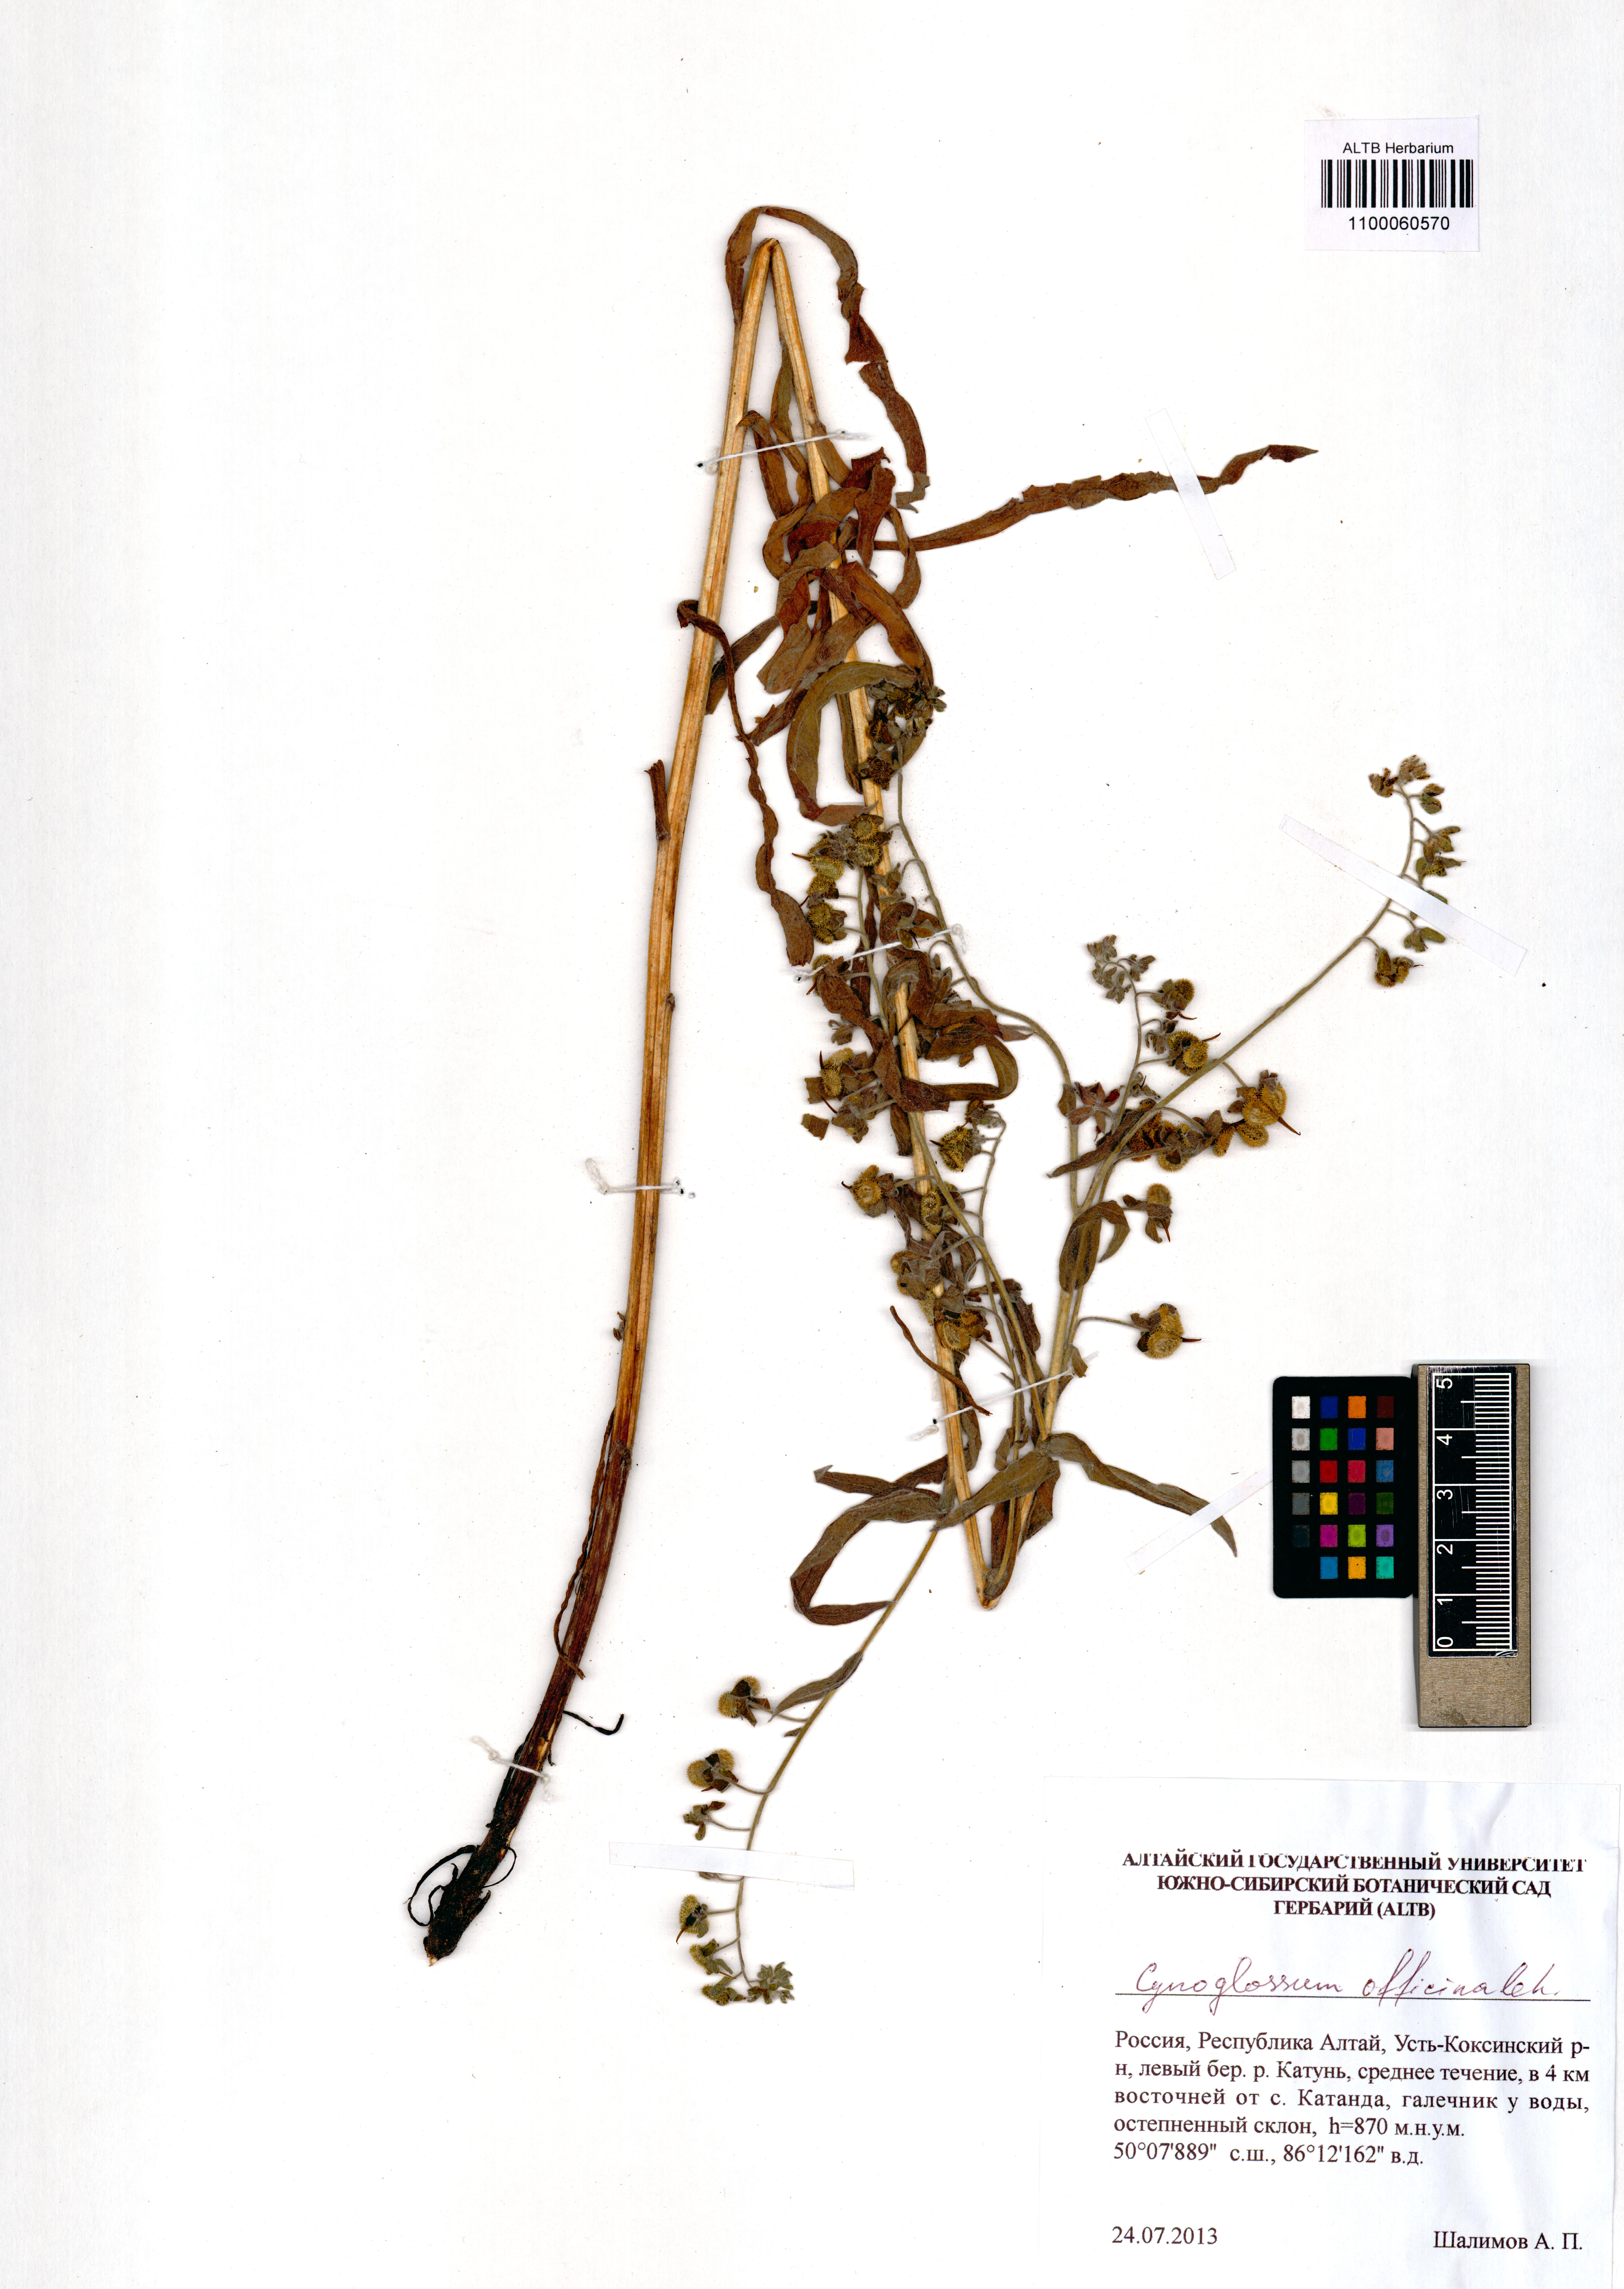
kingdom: Plantae
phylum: Tracheophyta
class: Magnoliopsida
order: Boraginales
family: Boraginaceae
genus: Cynoglossum
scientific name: Cynoglossum officinale
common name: Hound's-tongue
